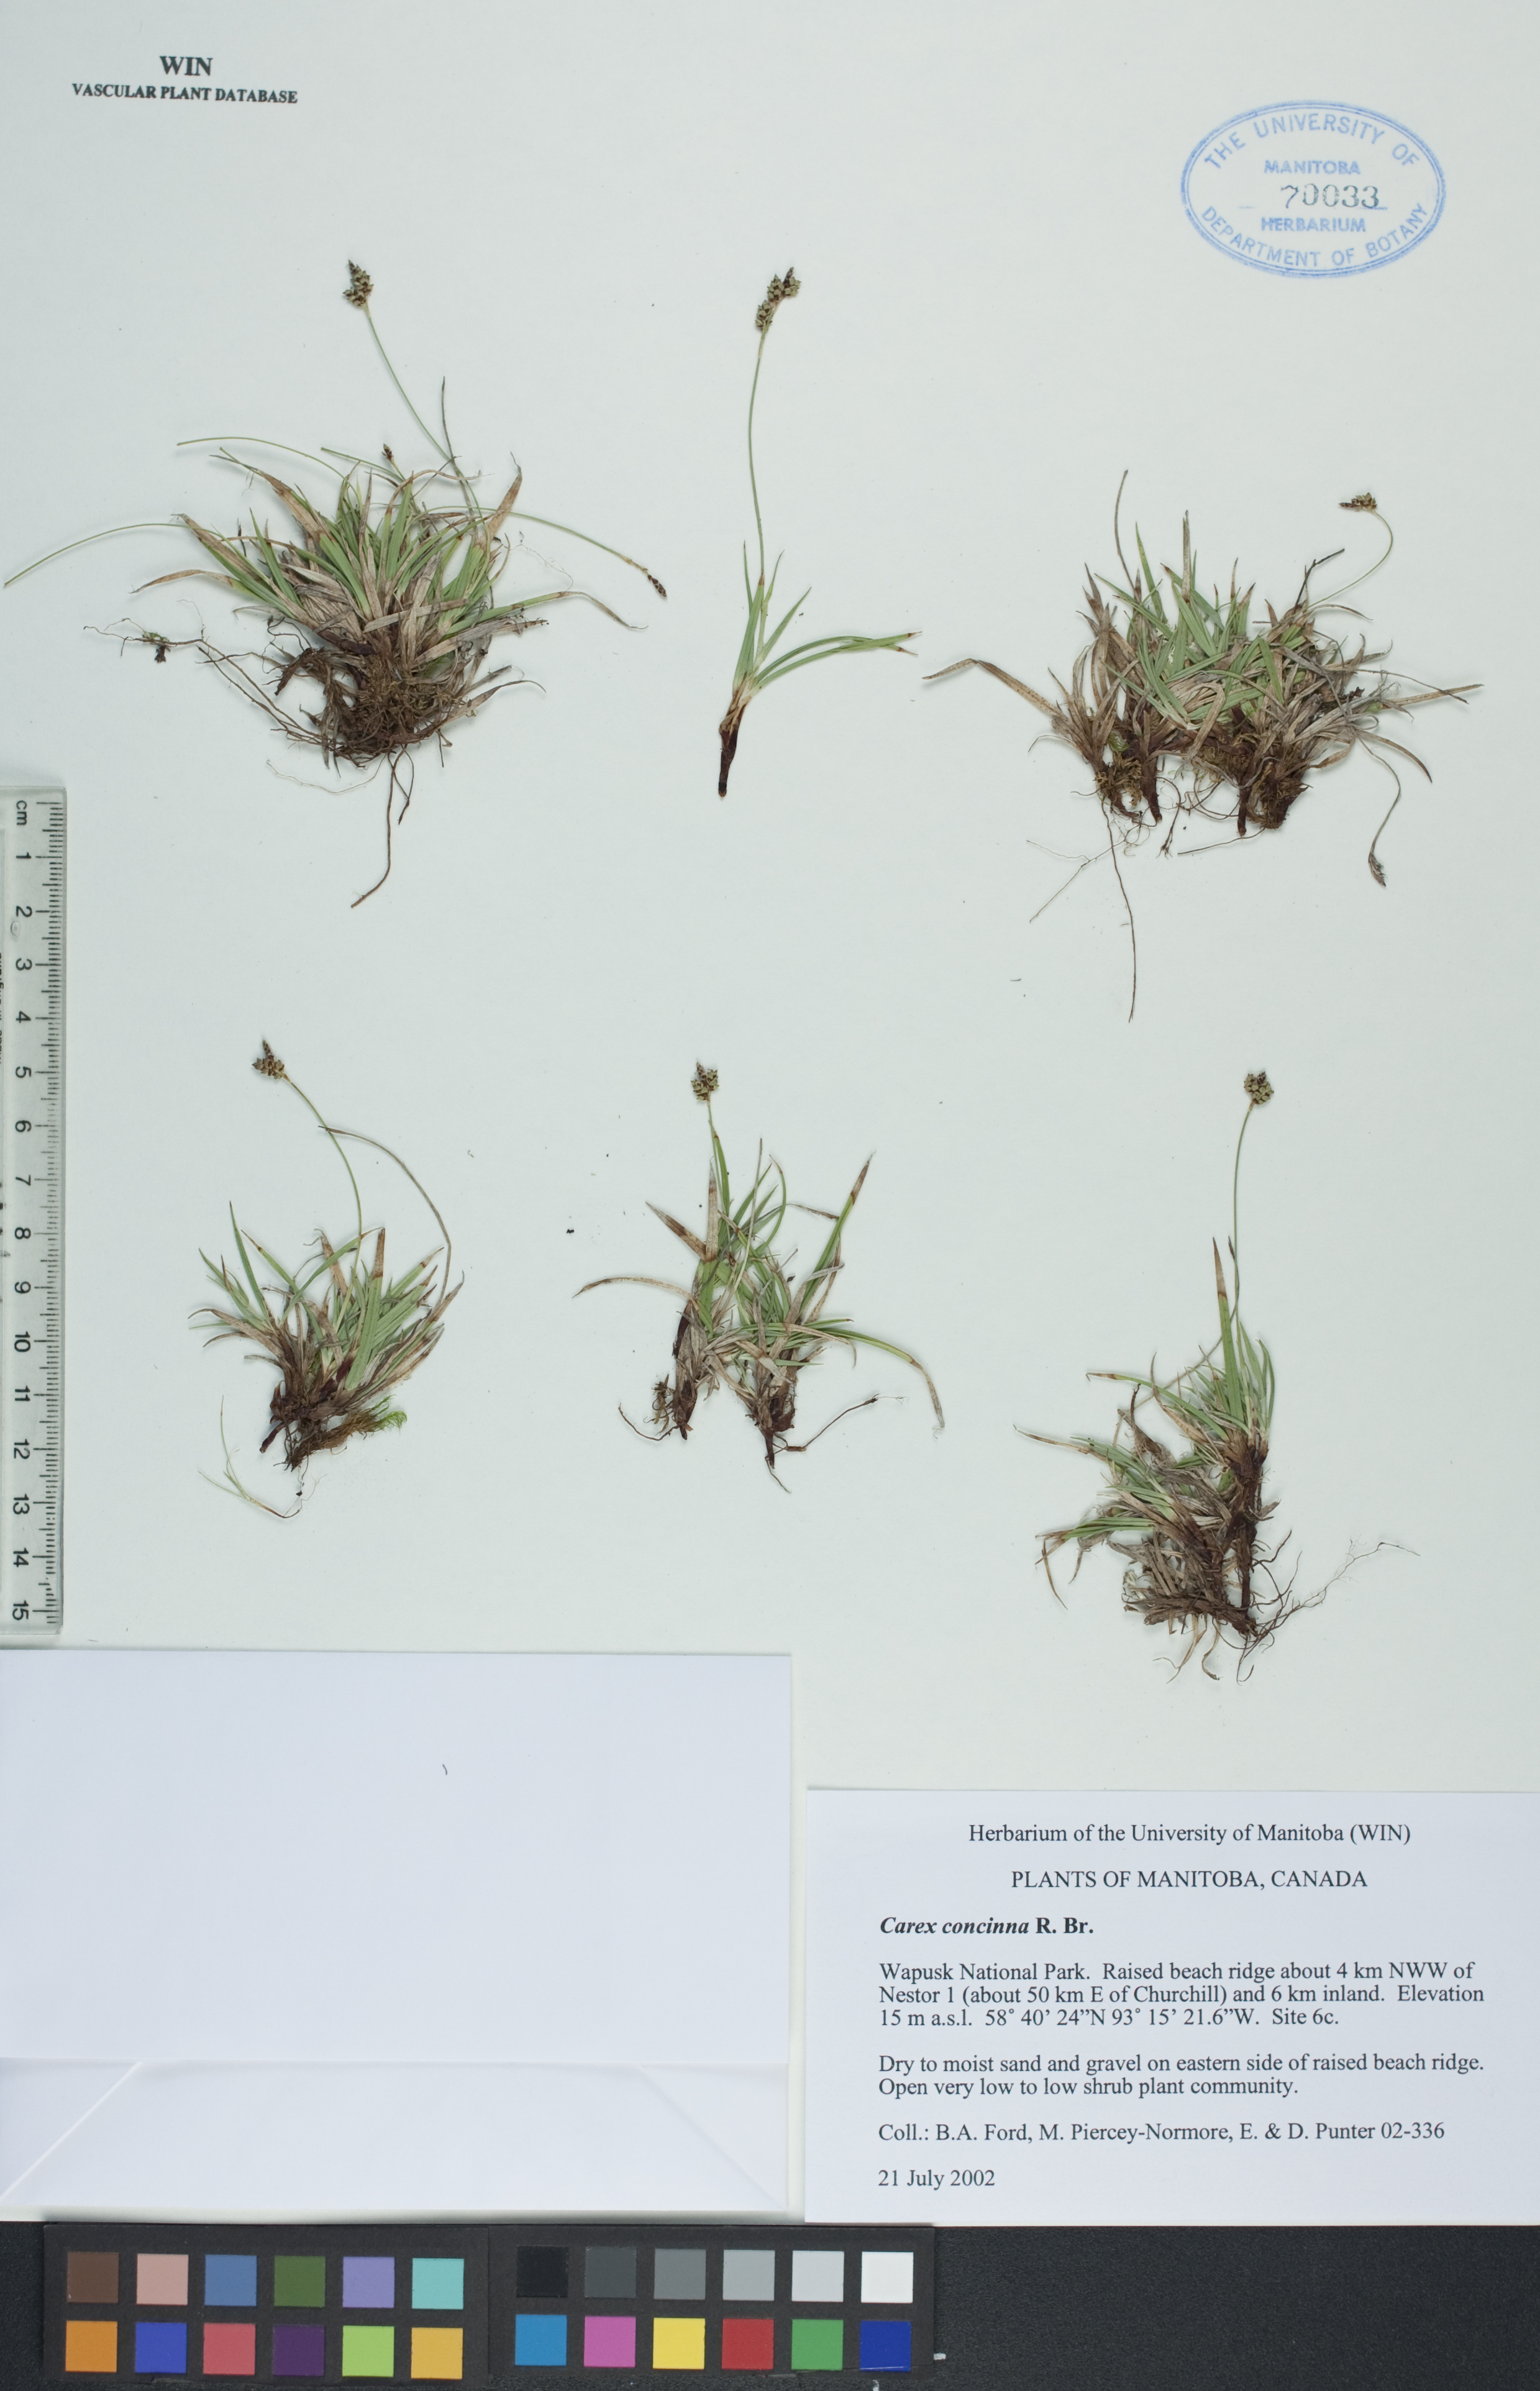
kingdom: Plantae
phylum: Tracheophyta
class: Liliopsida
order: Poales
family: Cyperaceae
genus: Carex
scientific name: Carex concinna
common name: Beautiful sedge
